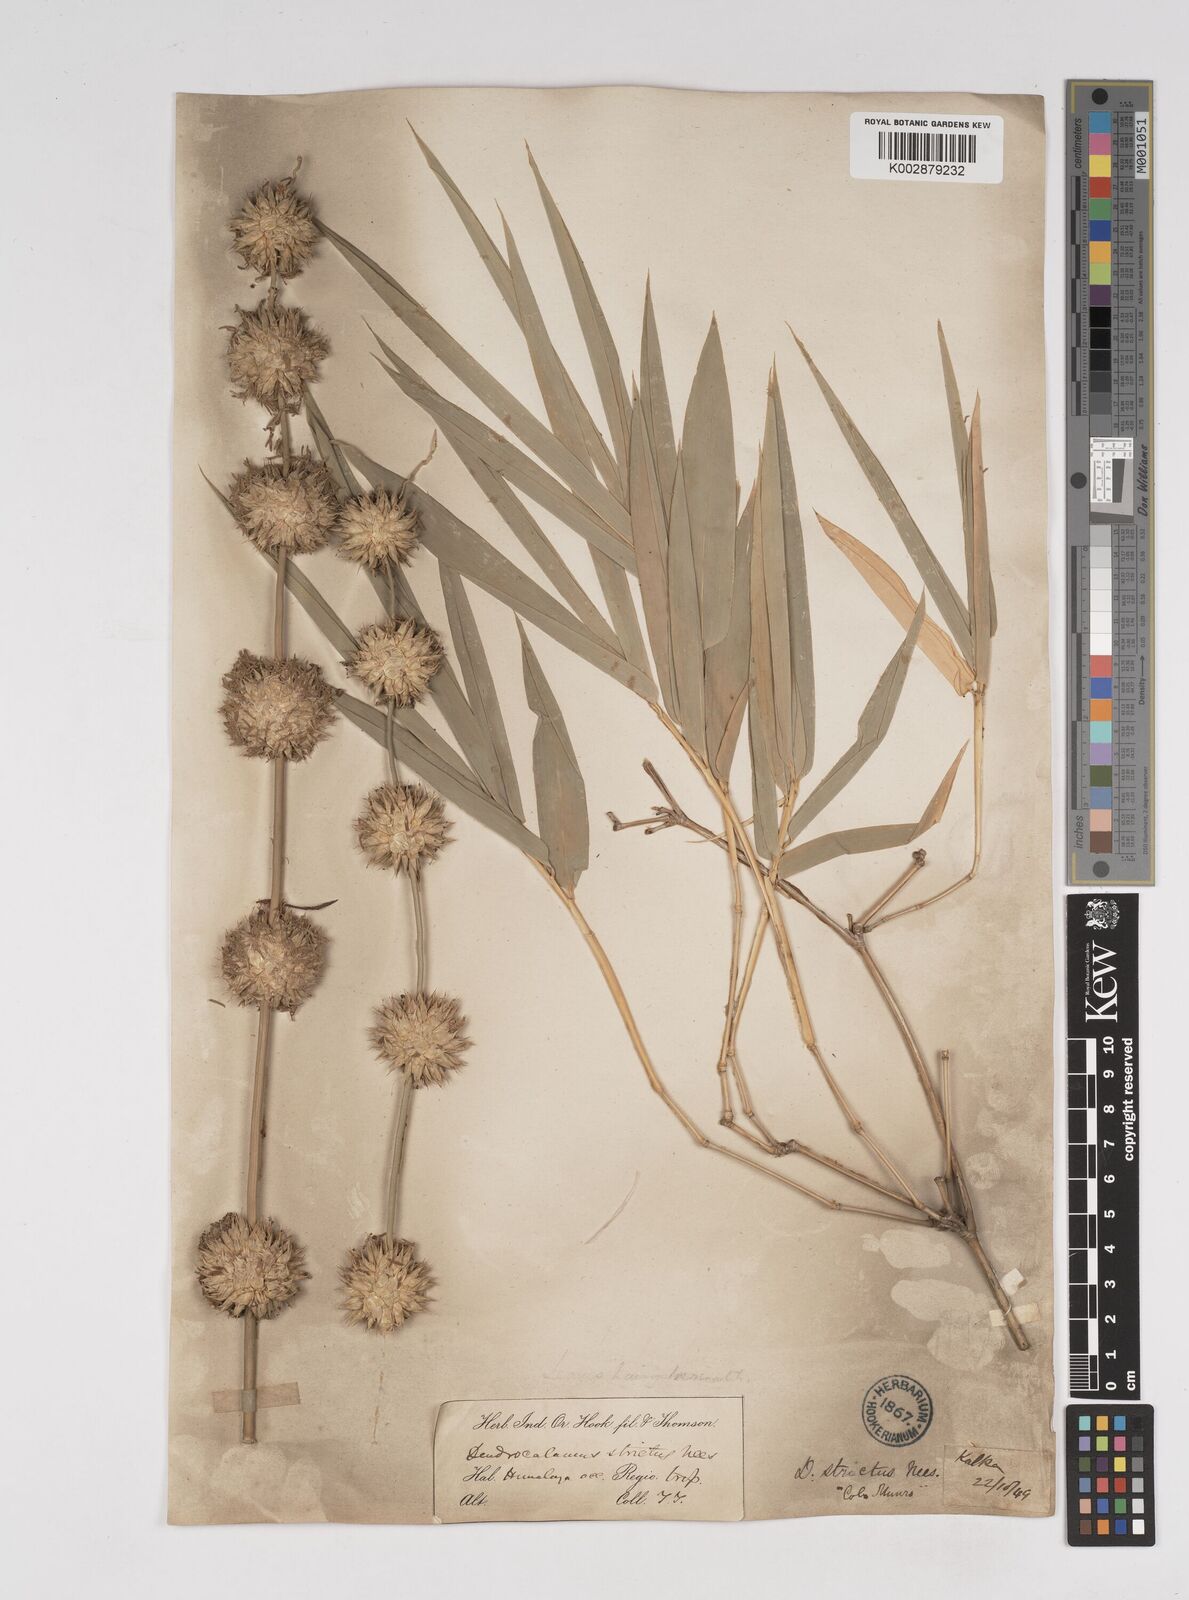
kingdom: Plantae
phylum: Tracheophyta
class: Liliopsida
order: Poales
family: Poaceae
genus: Dendrocalamus
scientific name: Dendrocalamus strictus
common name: Male bamboo
